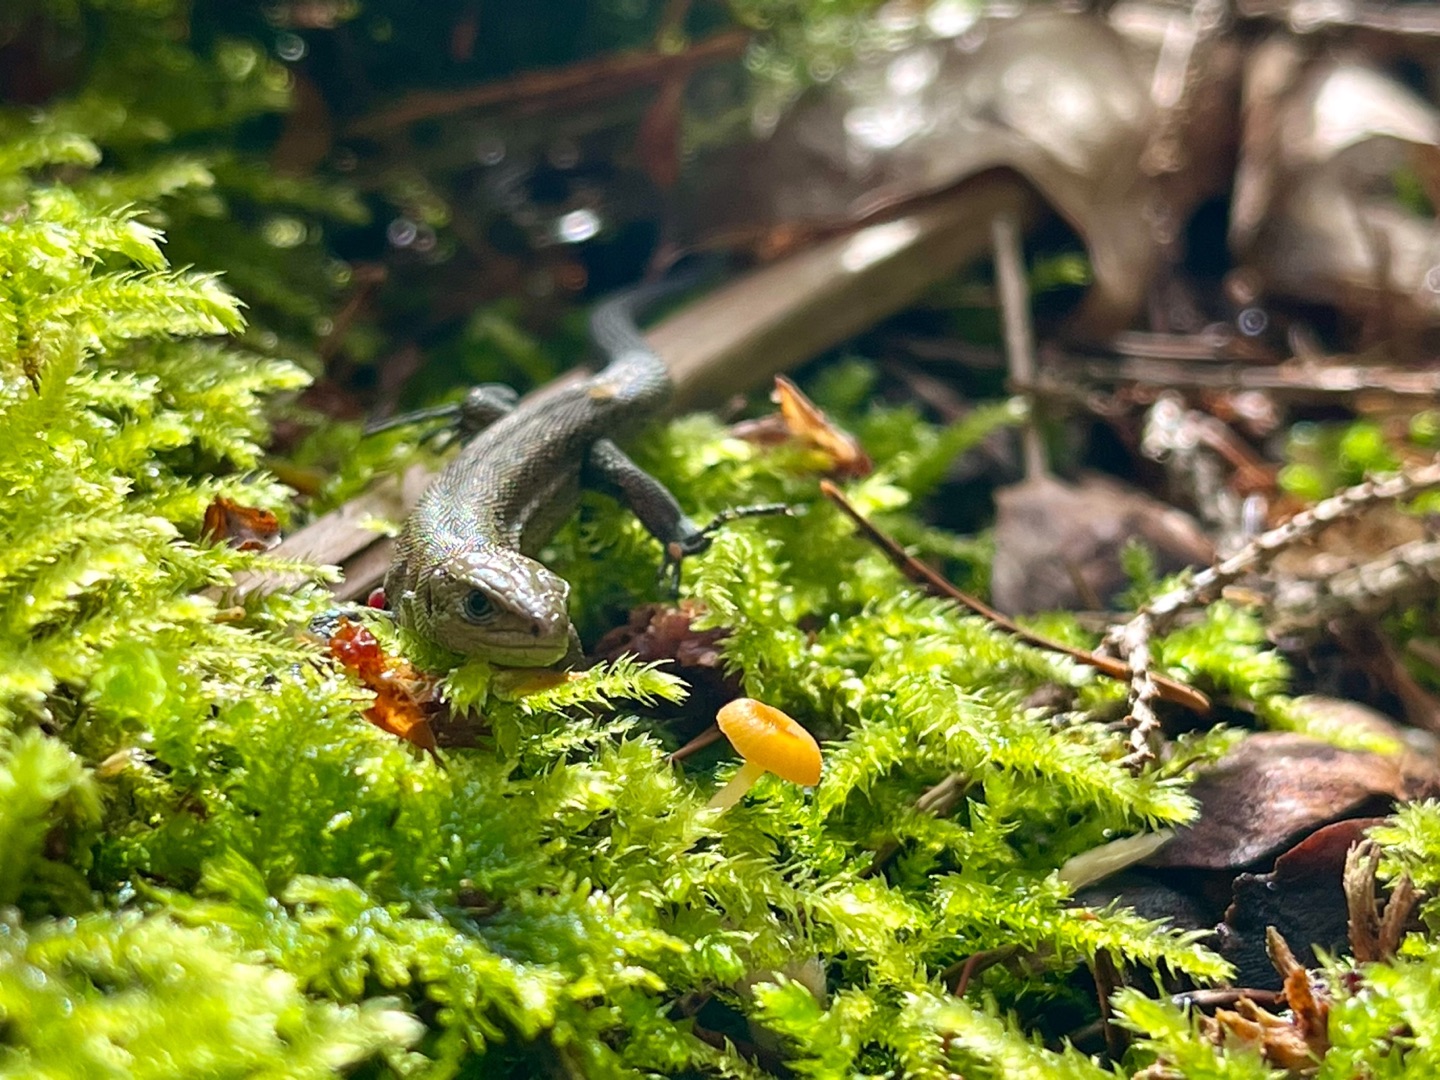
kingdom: Animalia
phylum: Chordata
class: Squamata
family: Lacertidae
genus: Zootoca
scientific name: Zootoca vivipara
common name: Skovfirben
